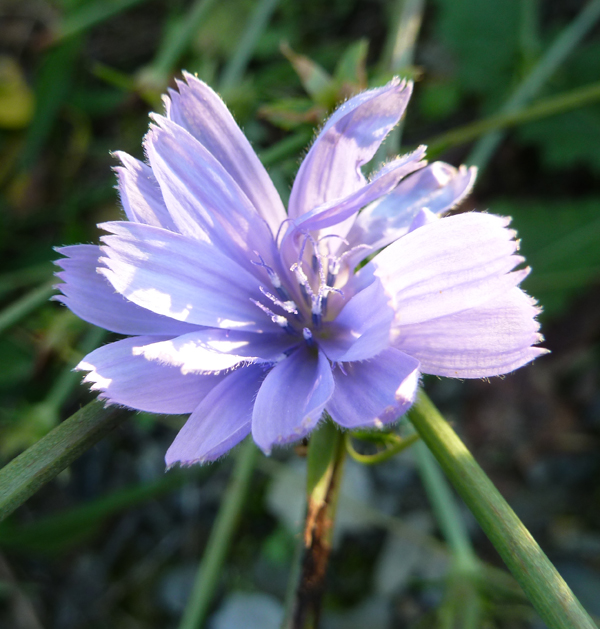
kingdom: Plantae
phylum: Tracheophyta
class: Magnoliopsida
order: Asterales
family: Asteraceae
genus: Cichorium
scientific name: Cichorium intybus
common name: Chicory
